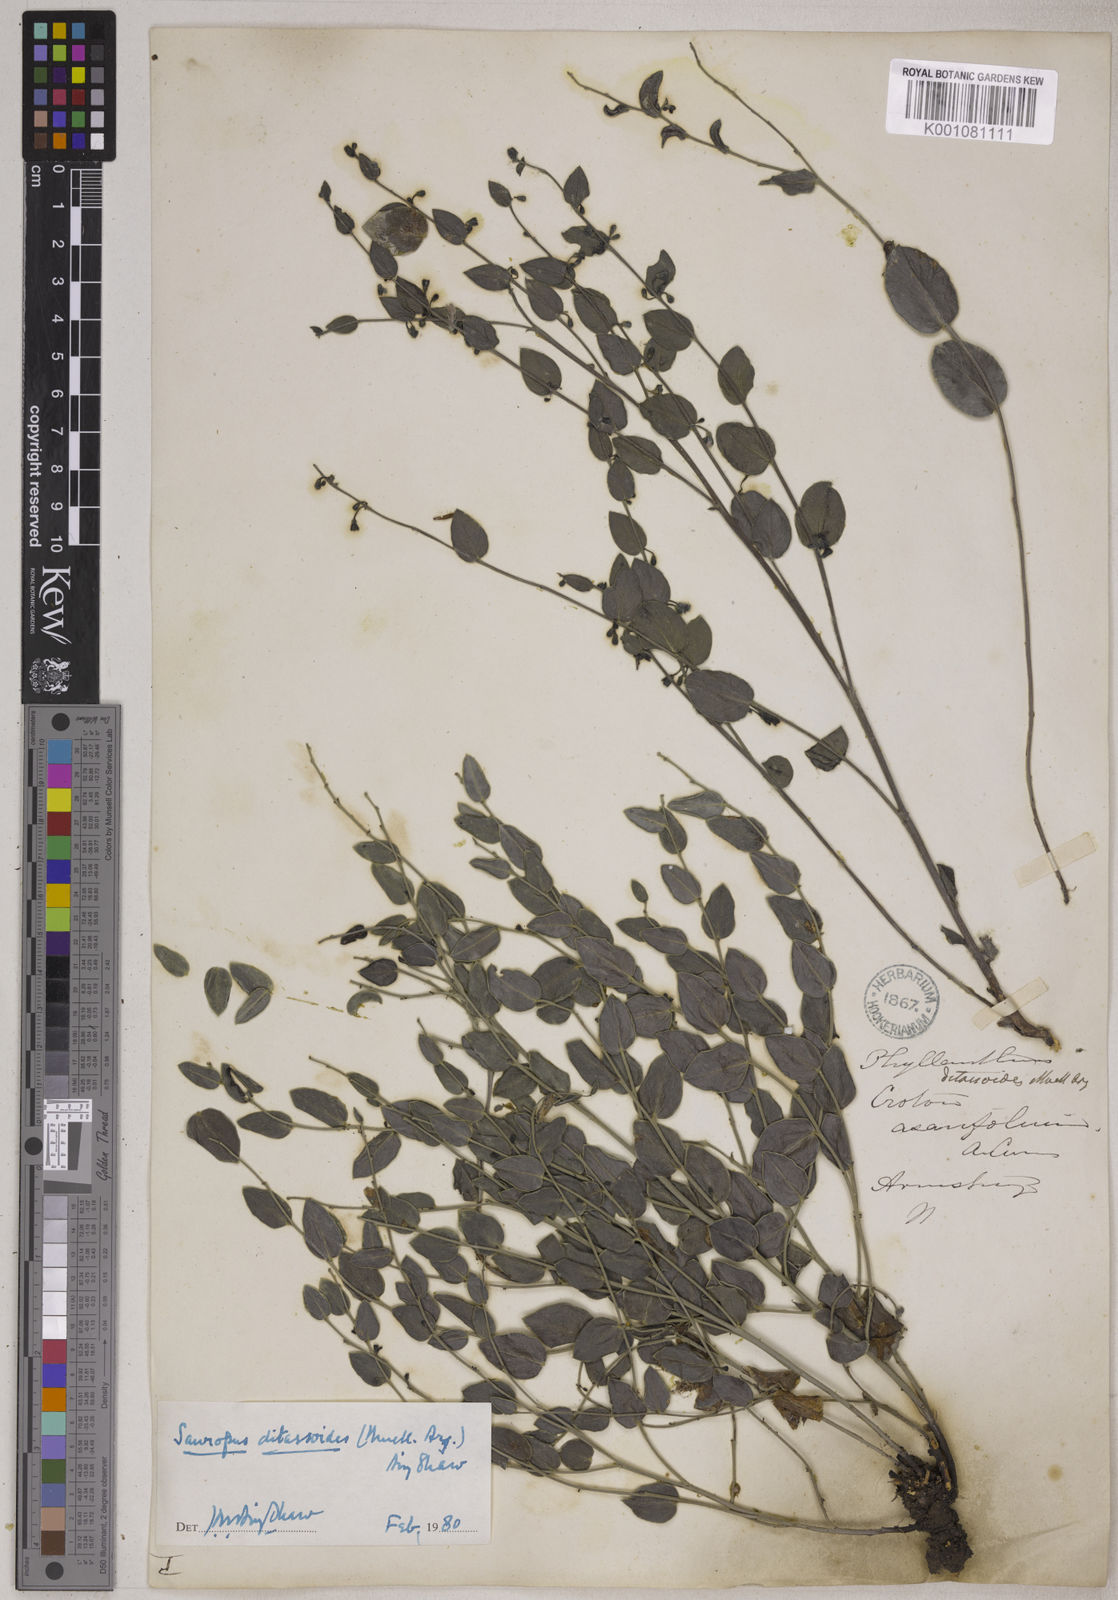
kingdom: Animalia
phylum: Chordata
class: Amphibia
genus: Sauropus
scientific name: Sauropus
